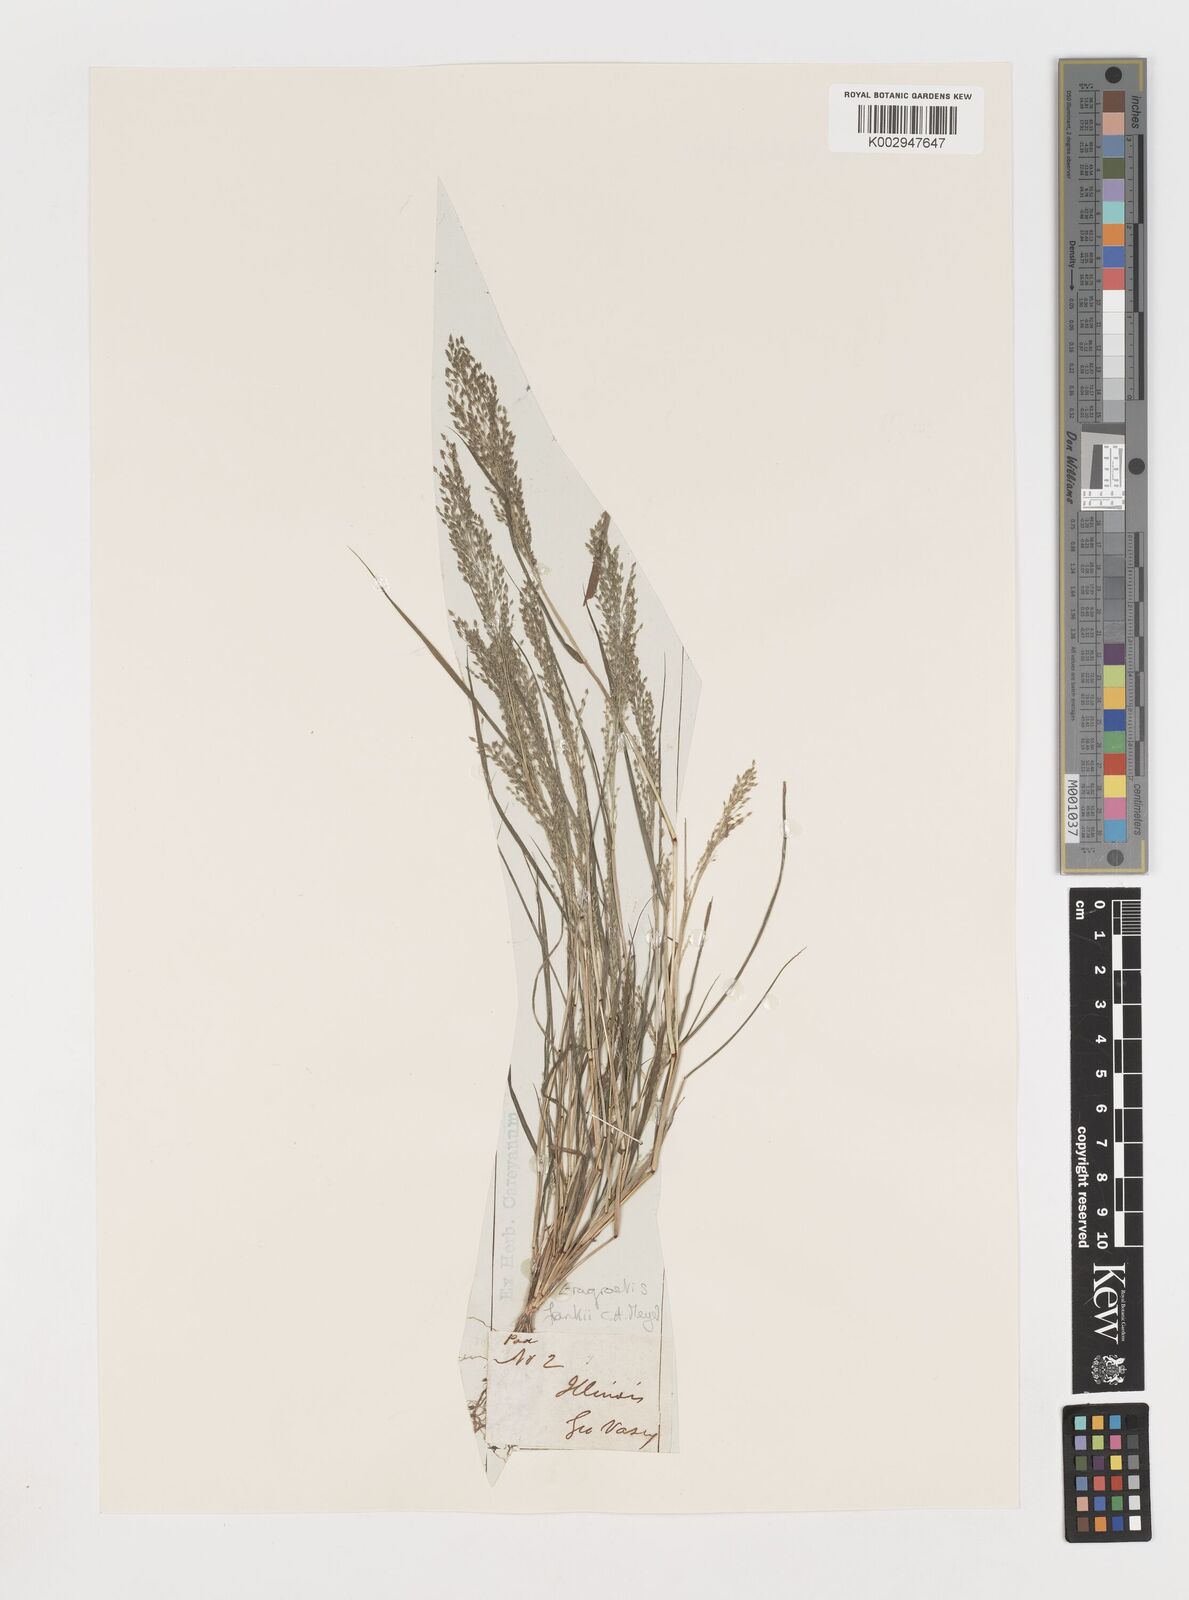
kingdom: Plantae
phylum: Tracheophyta
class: Liliopsida
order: Poales
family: Poaceae
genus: Eragrostis
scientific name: Eragrostis frankii
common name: Frank's lovegrass
